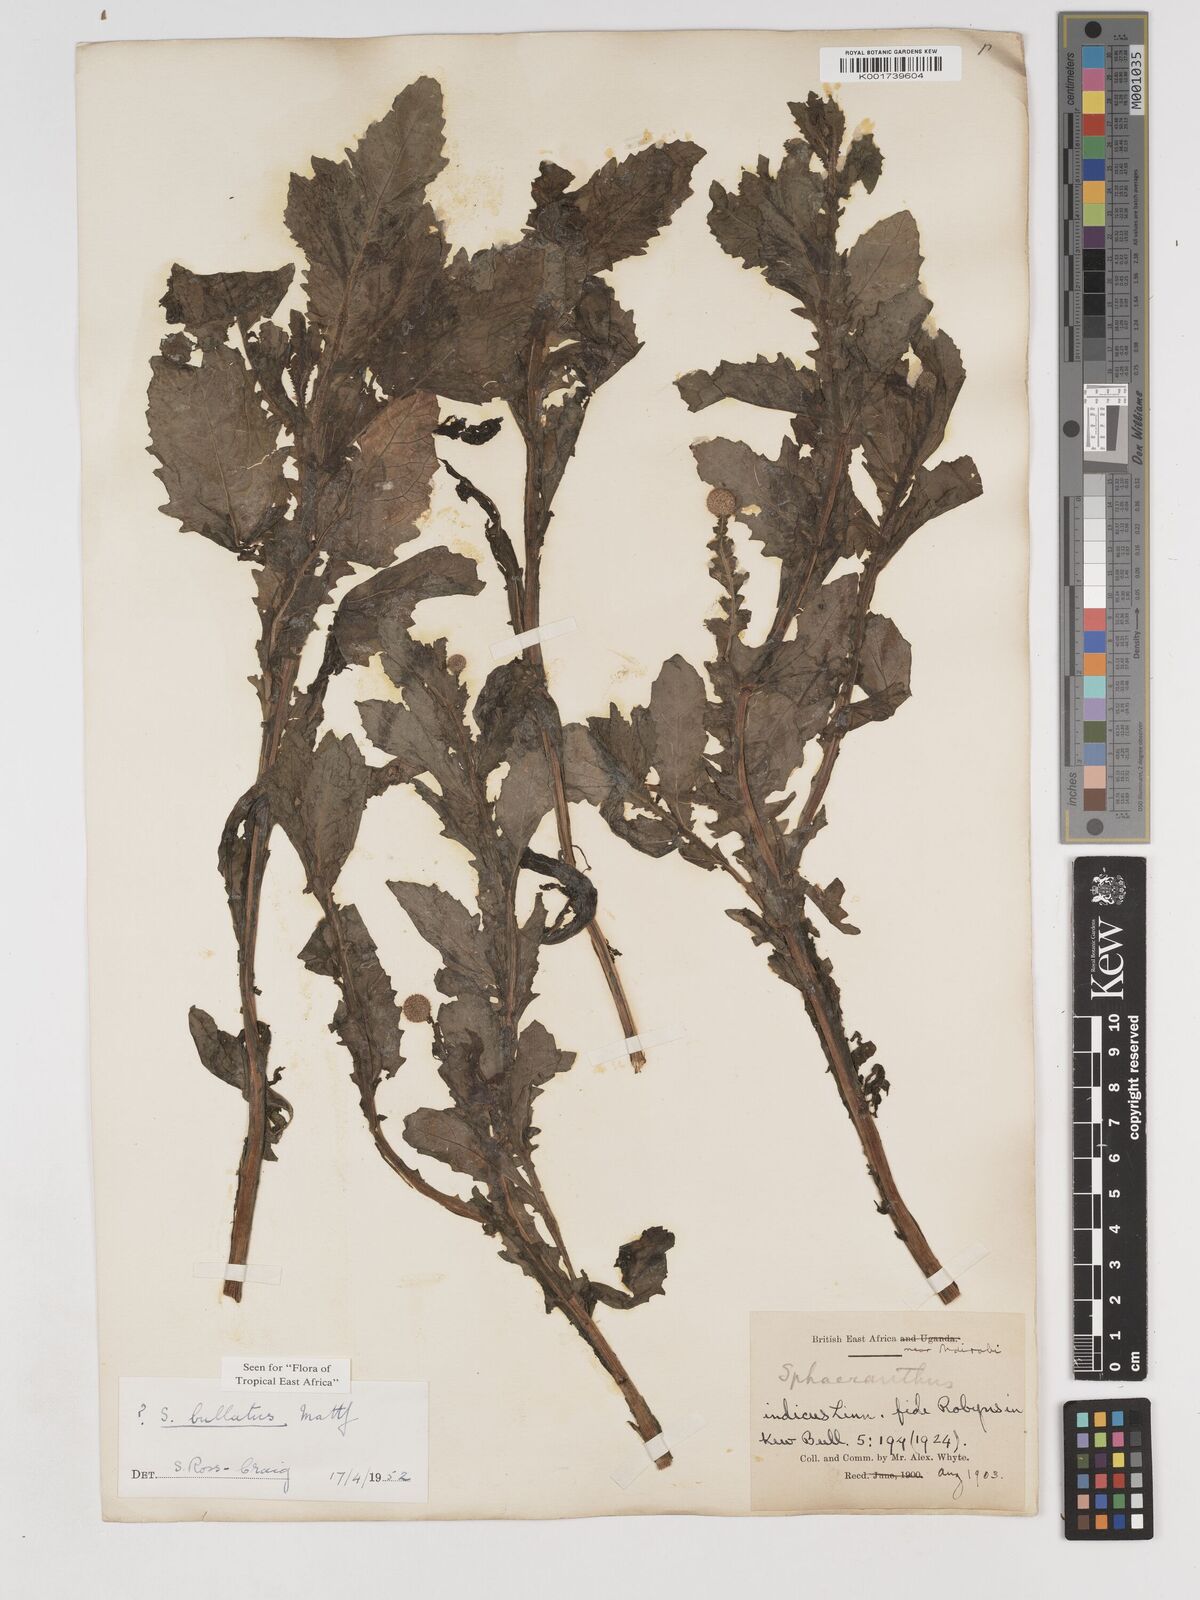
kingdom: Plantae
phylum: Tracheophyta
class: Magnoliopsida
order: Asterales
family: Asteraceae
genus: Sphaeranthus
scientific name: Sphaeranthus bullatus
